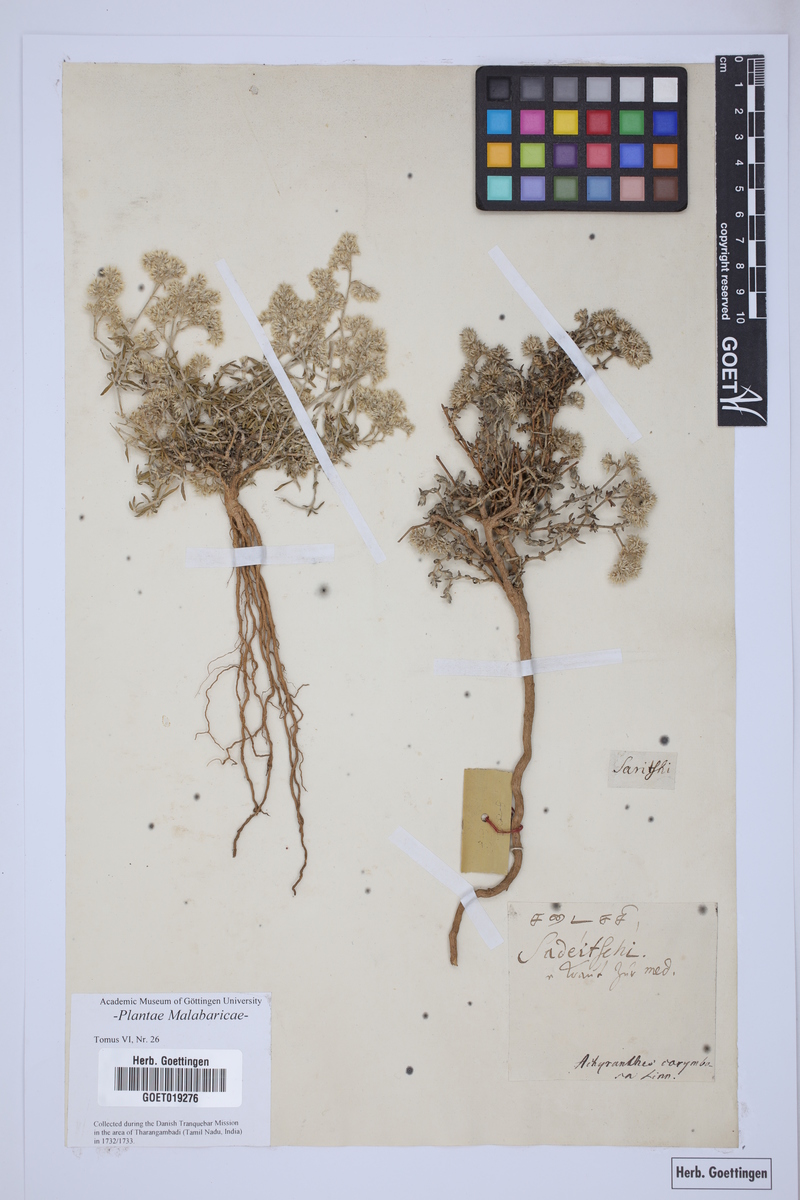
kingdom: Plantae
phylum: Tracheophyta
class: Magnoliopsida
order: Caryophyllales
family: Caryophyllaceae
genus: Polycarpaea
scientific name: Polycarpaea corymbosa
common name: Oldman's cap
